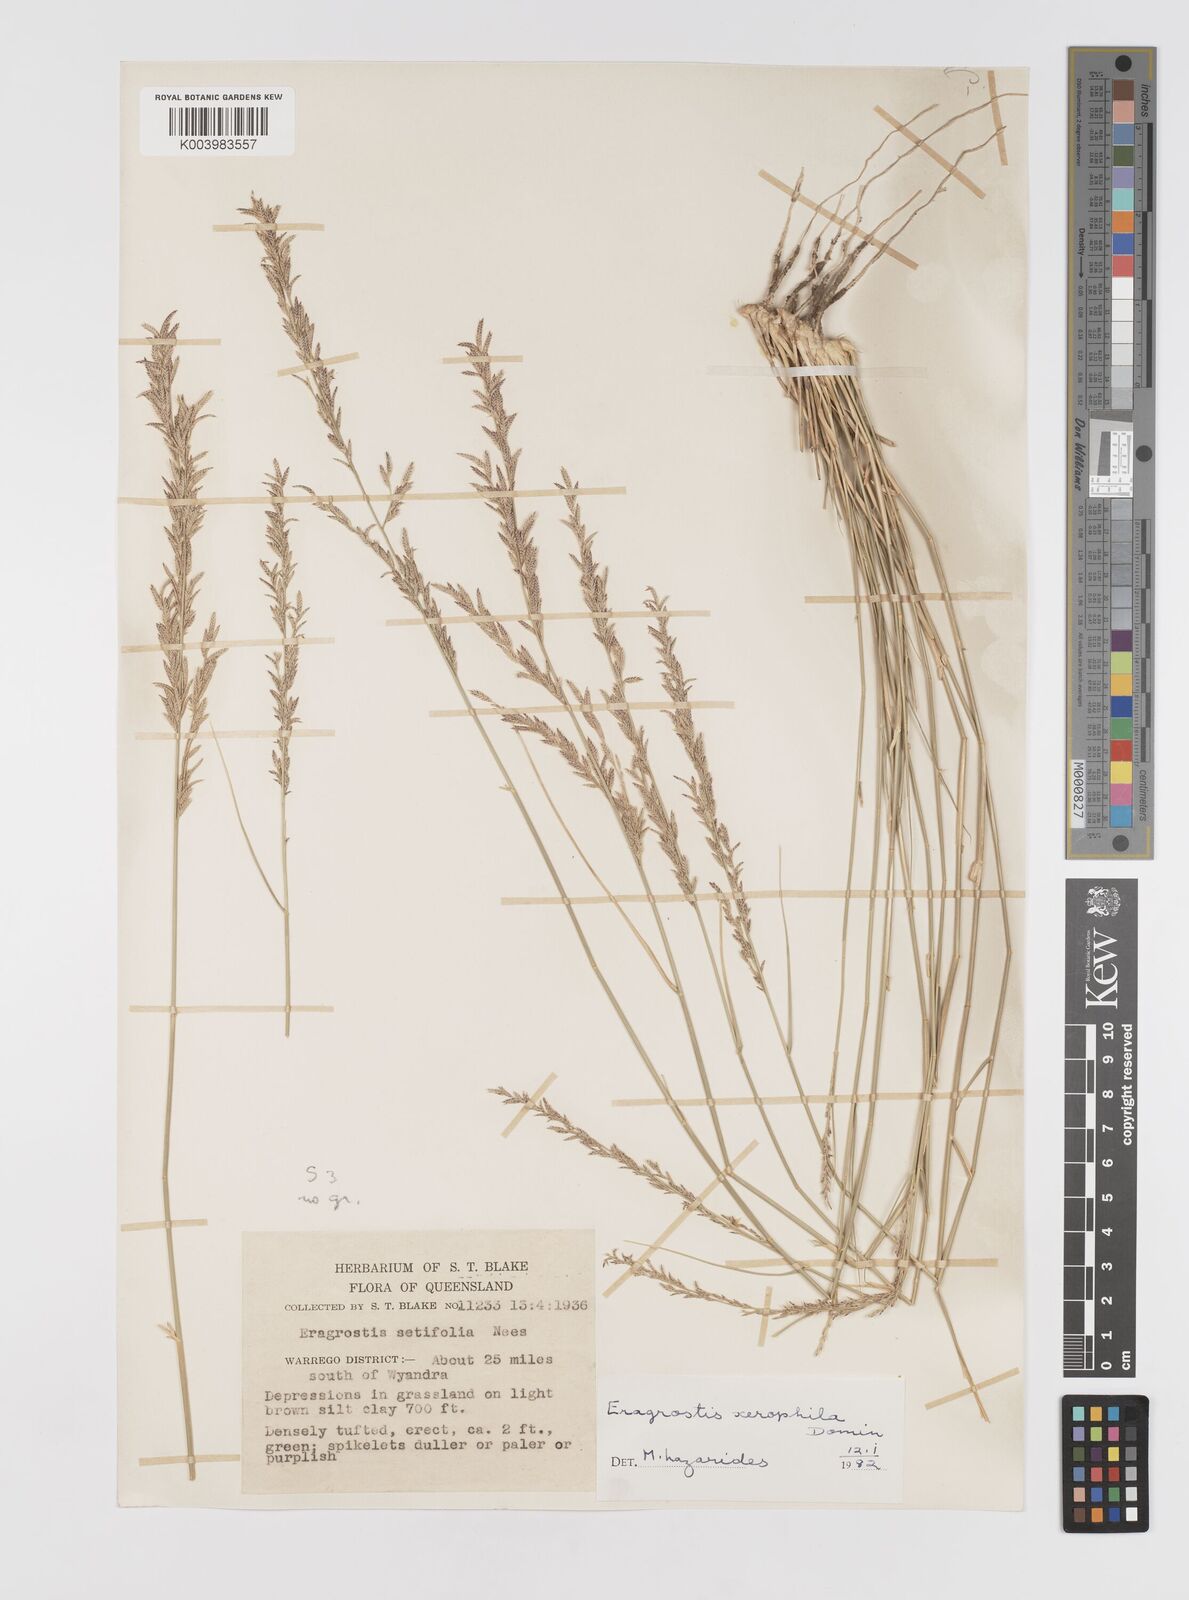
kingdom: Plantae
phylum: Tracheophyta
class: Liliopsida
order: Poales
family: Poaceae
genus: Eragrostis
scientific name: Eragrostis xerophila
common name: Wire wandarrie grass
